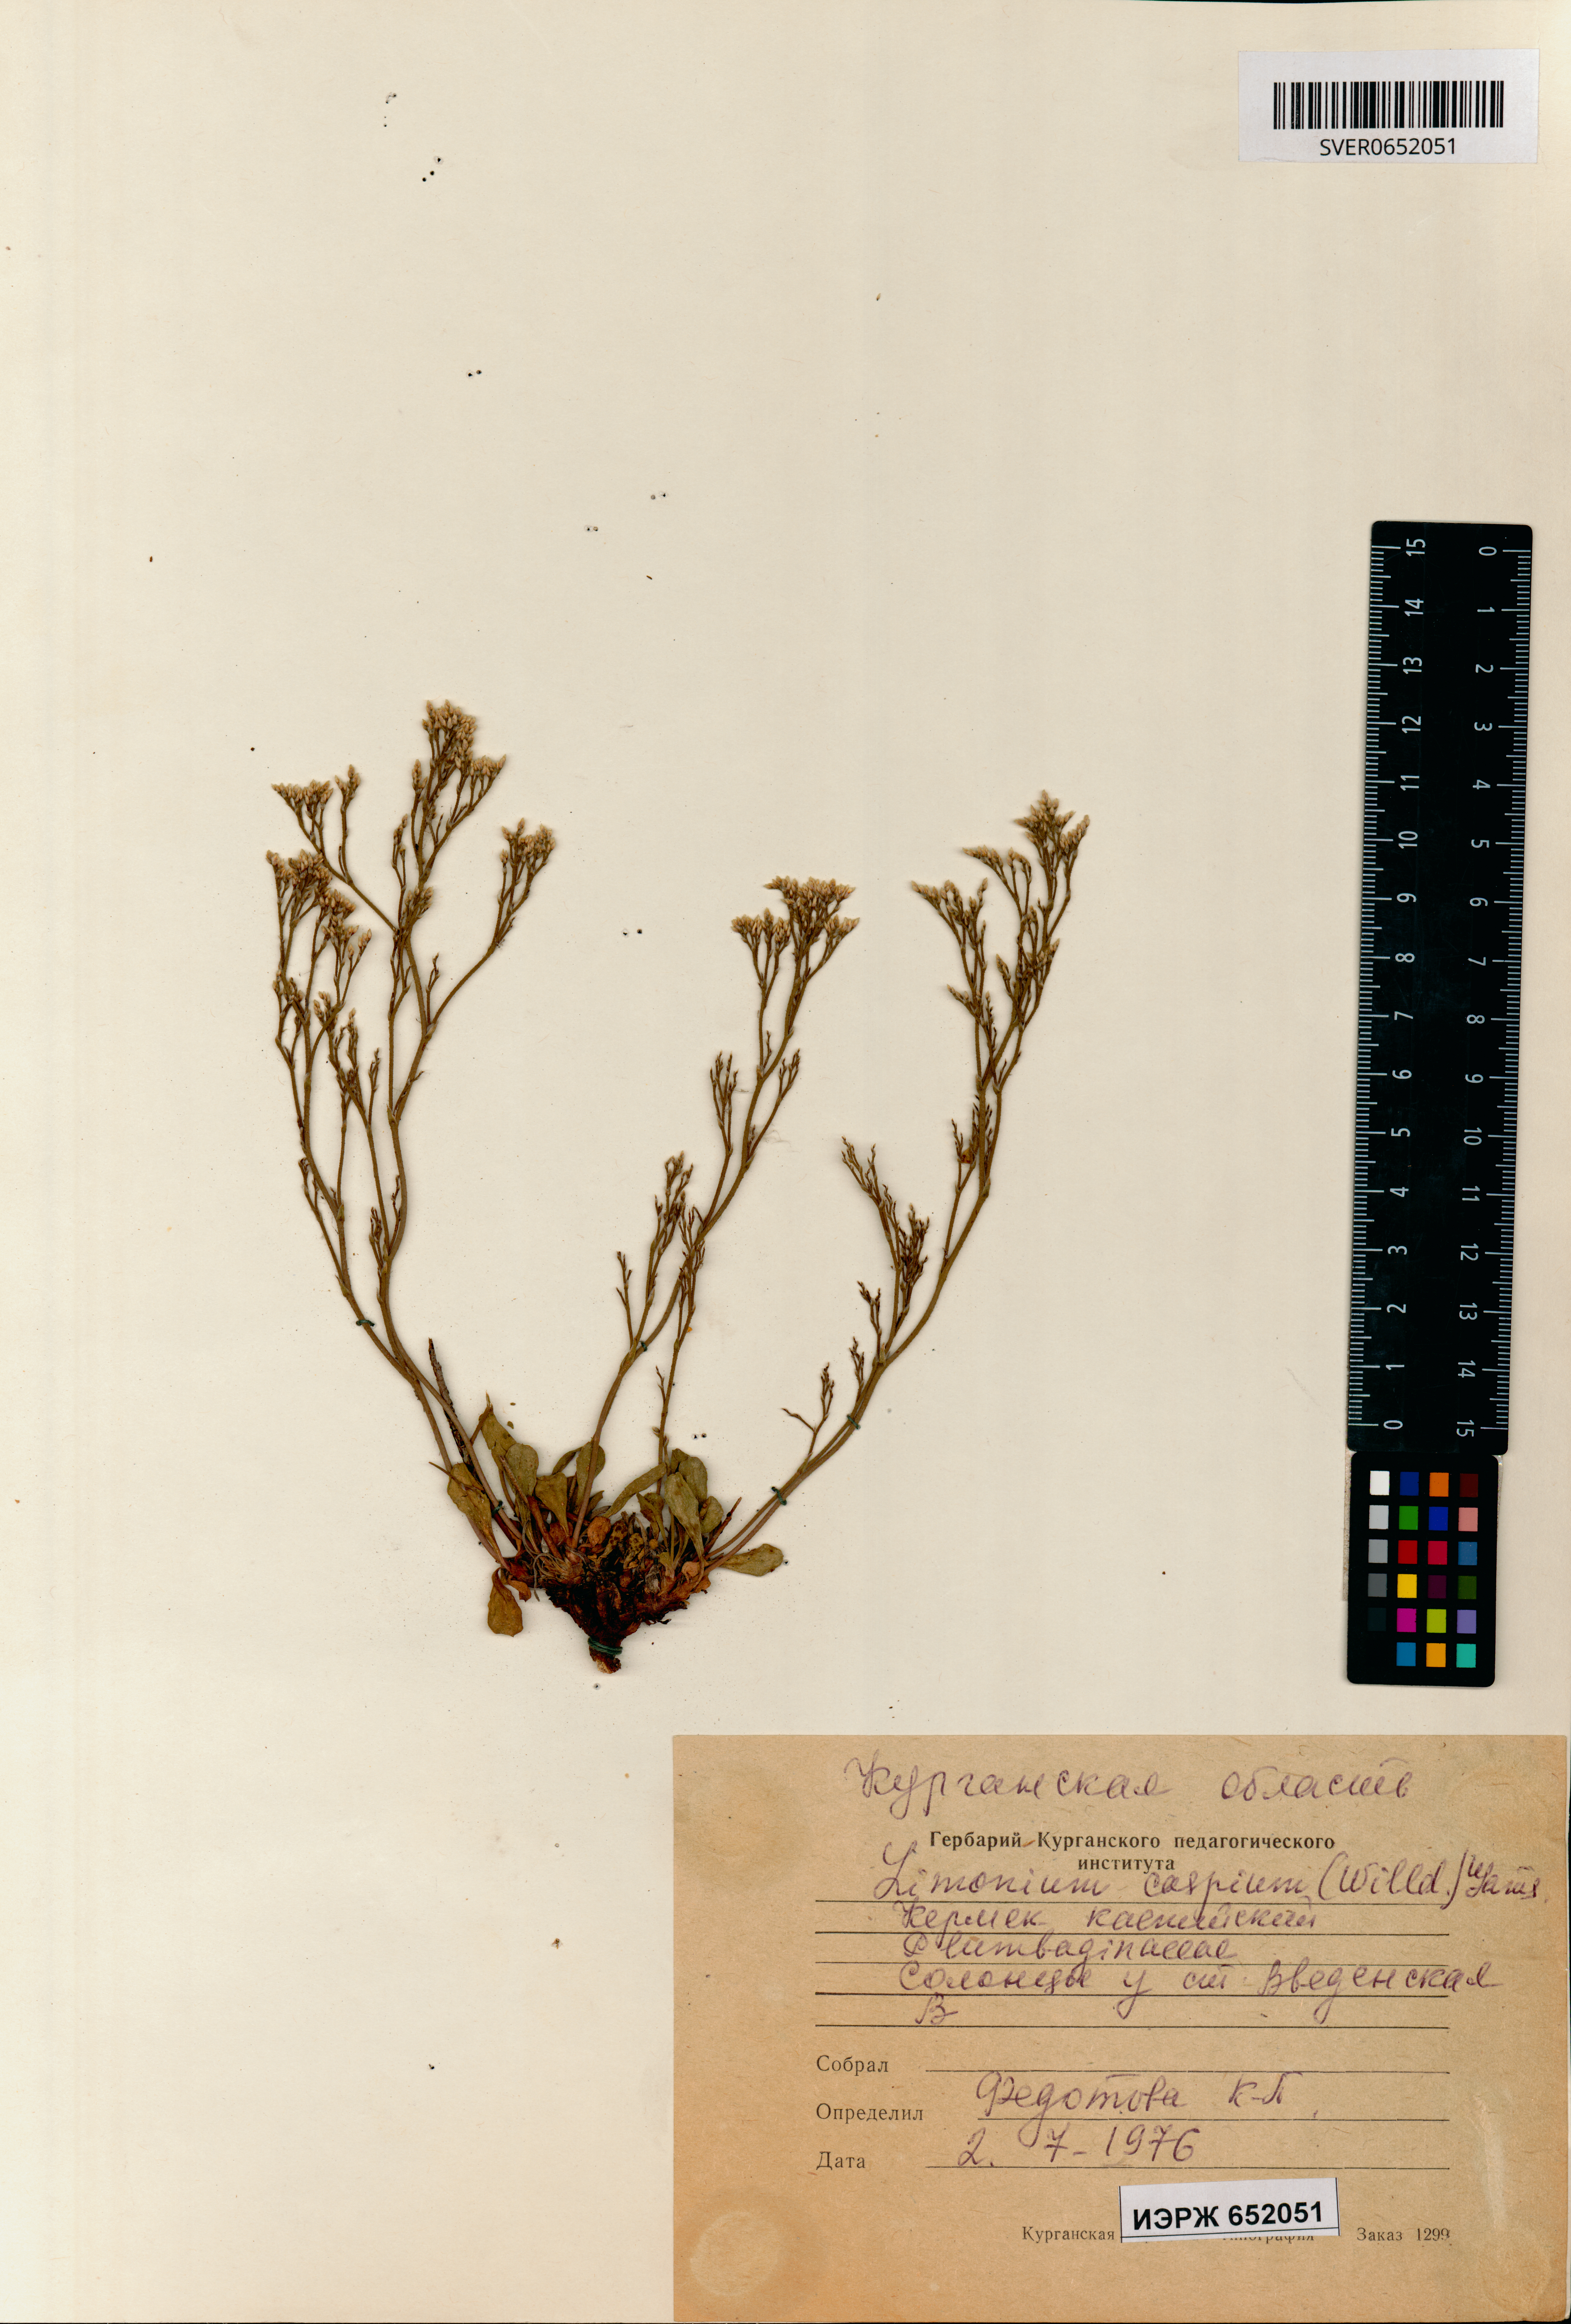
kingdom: Plantae
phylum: Tracheophyta
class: Magnoliopsida
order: Caryophyllales
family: Plumbaginaceae
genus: Limonium
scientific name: Limonium bellidifolium
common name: Matted sea-lavender
